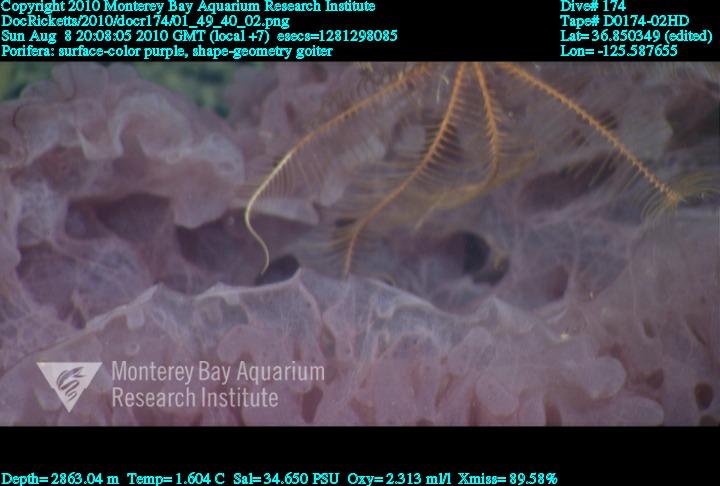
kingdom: Animalia
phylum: Porifera
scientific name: Porifera
